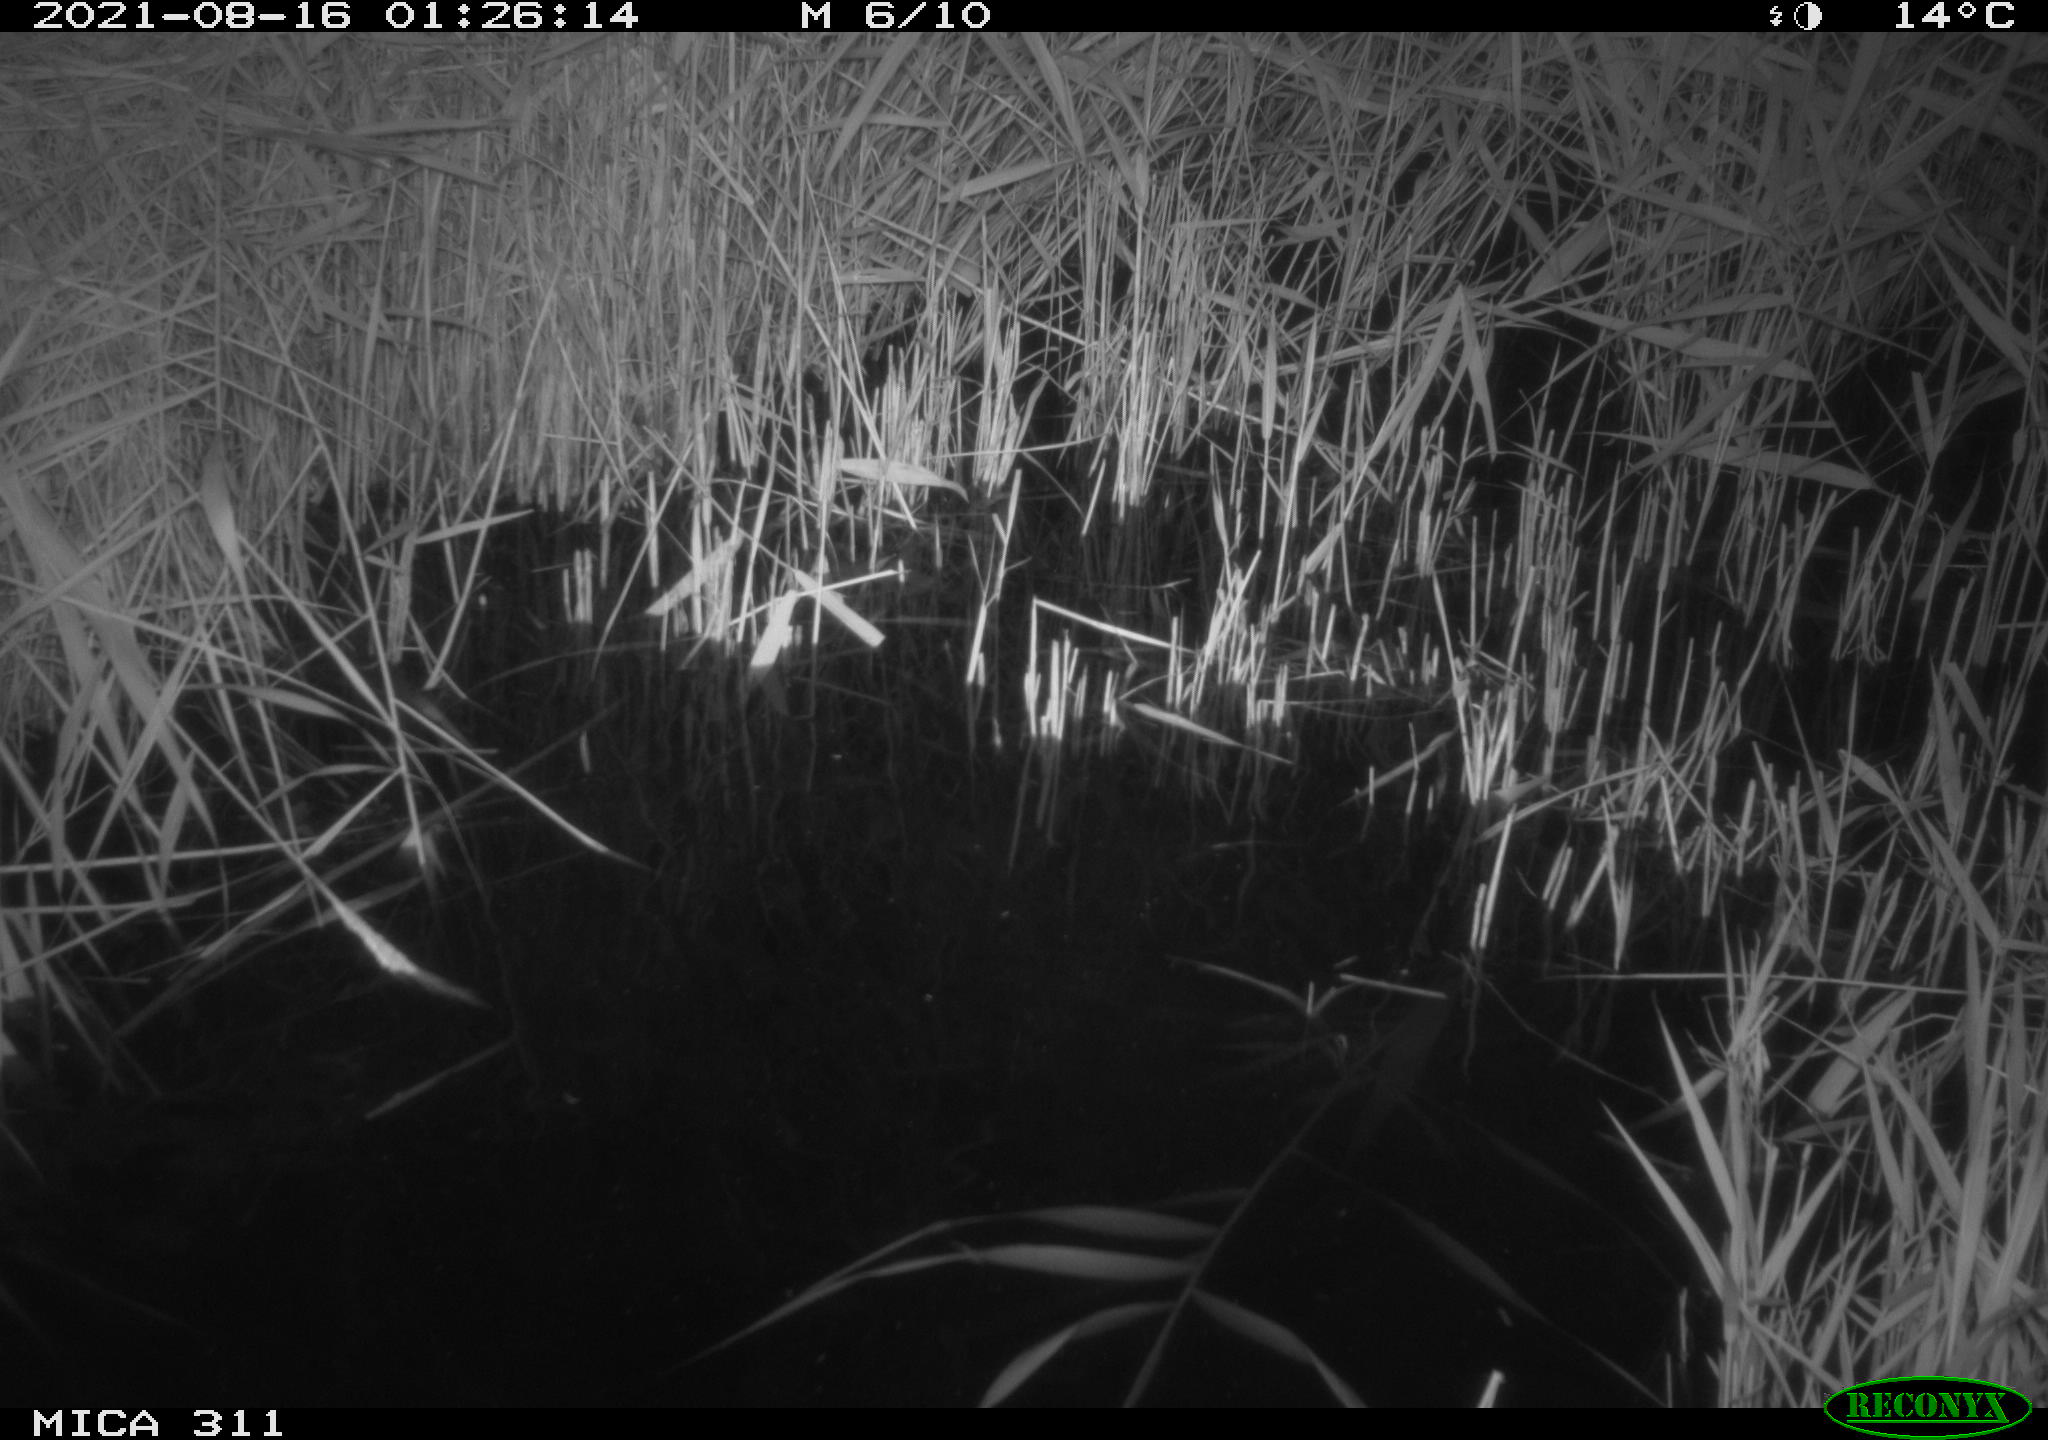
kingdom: Animalia
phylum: Chordata
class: Mammalia
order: Rodentia
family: Muridae
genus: Rattus
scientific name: Rattus norvegicus
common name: Brown rat
